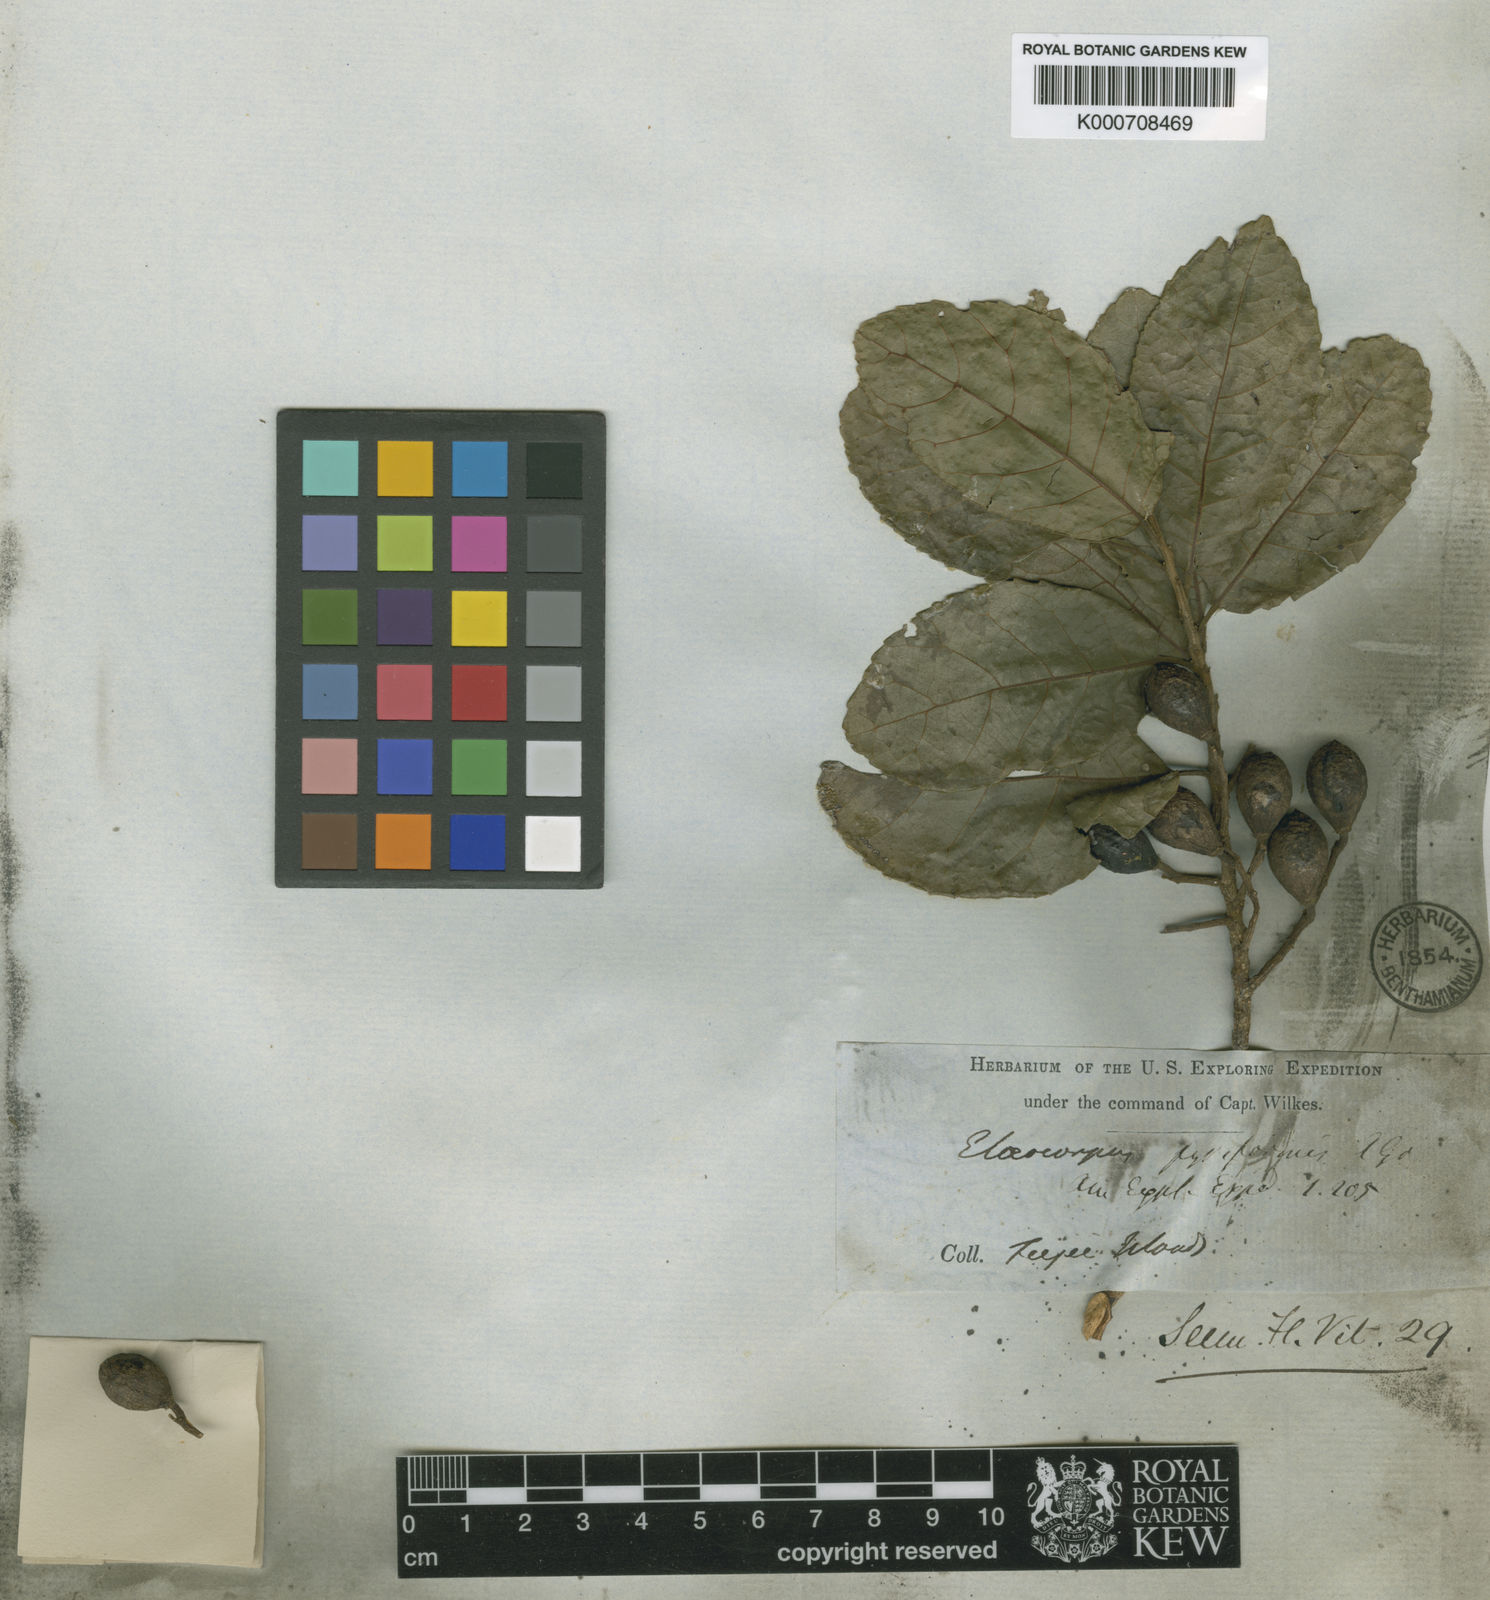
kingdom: Plantae
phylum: Tracheophyta
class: Magnoliopsida
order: Oxalidales
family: Elaeocarpaceae
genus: Elaeocarpus
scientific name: Elaeocarpus pyriformis
